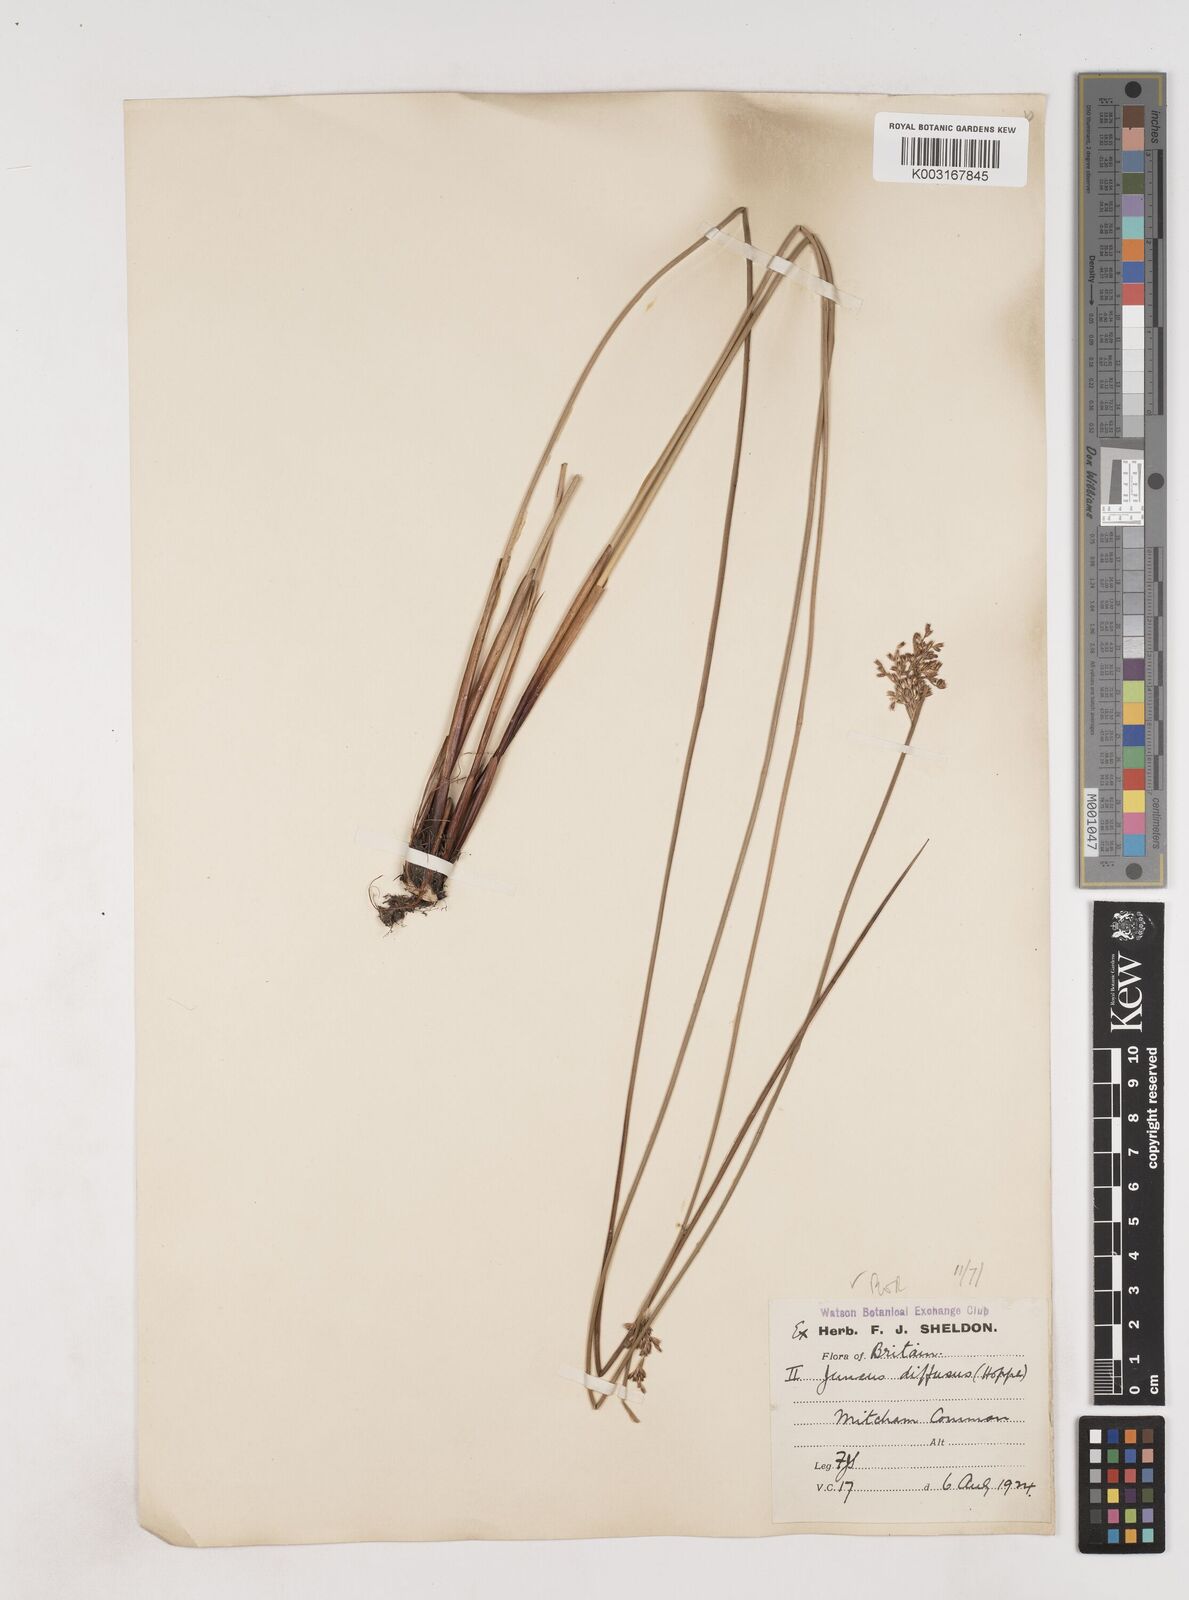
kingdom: Plantae
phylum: Tracheophyta
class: Liliopsida
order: Poales
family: Juncaceae
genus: Juncus
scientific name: Juncus effusus
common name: Soft rush
